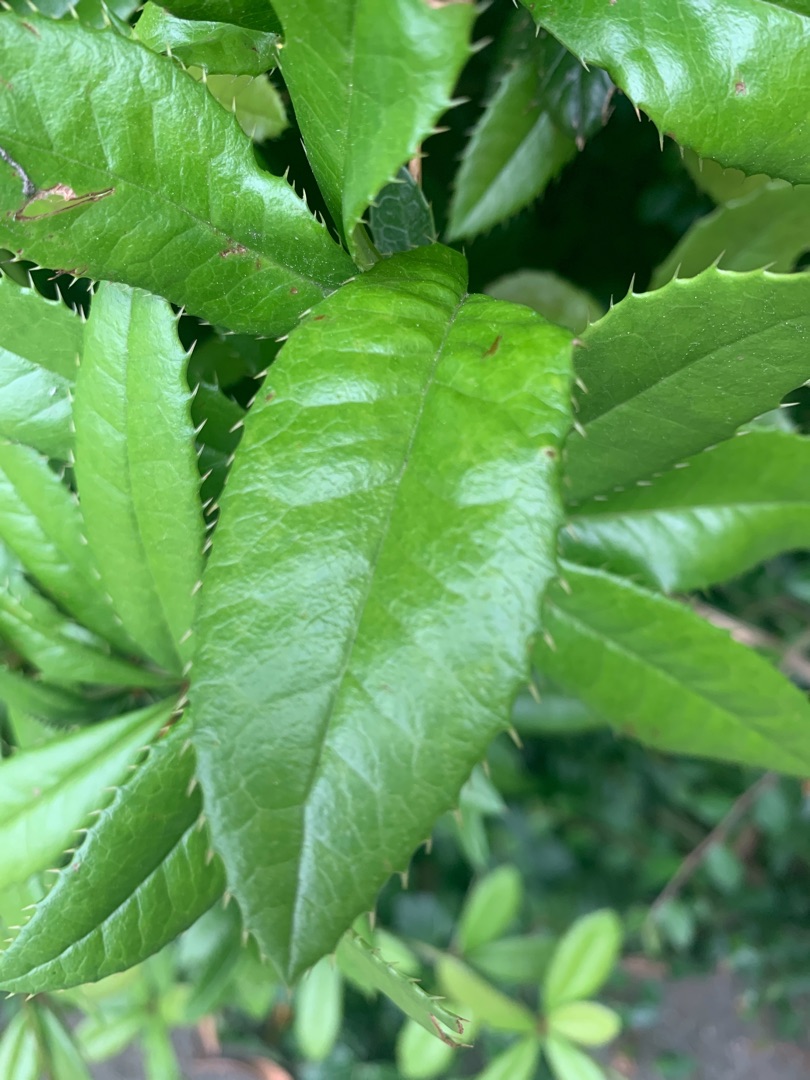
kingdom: Plantae
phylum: Tracheophyta
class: Magnoliopsida
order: Ranunculales
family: Berberidaceae
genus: Mahonia
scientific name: Mahonia aquifolium
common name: Almindelig mahonie
